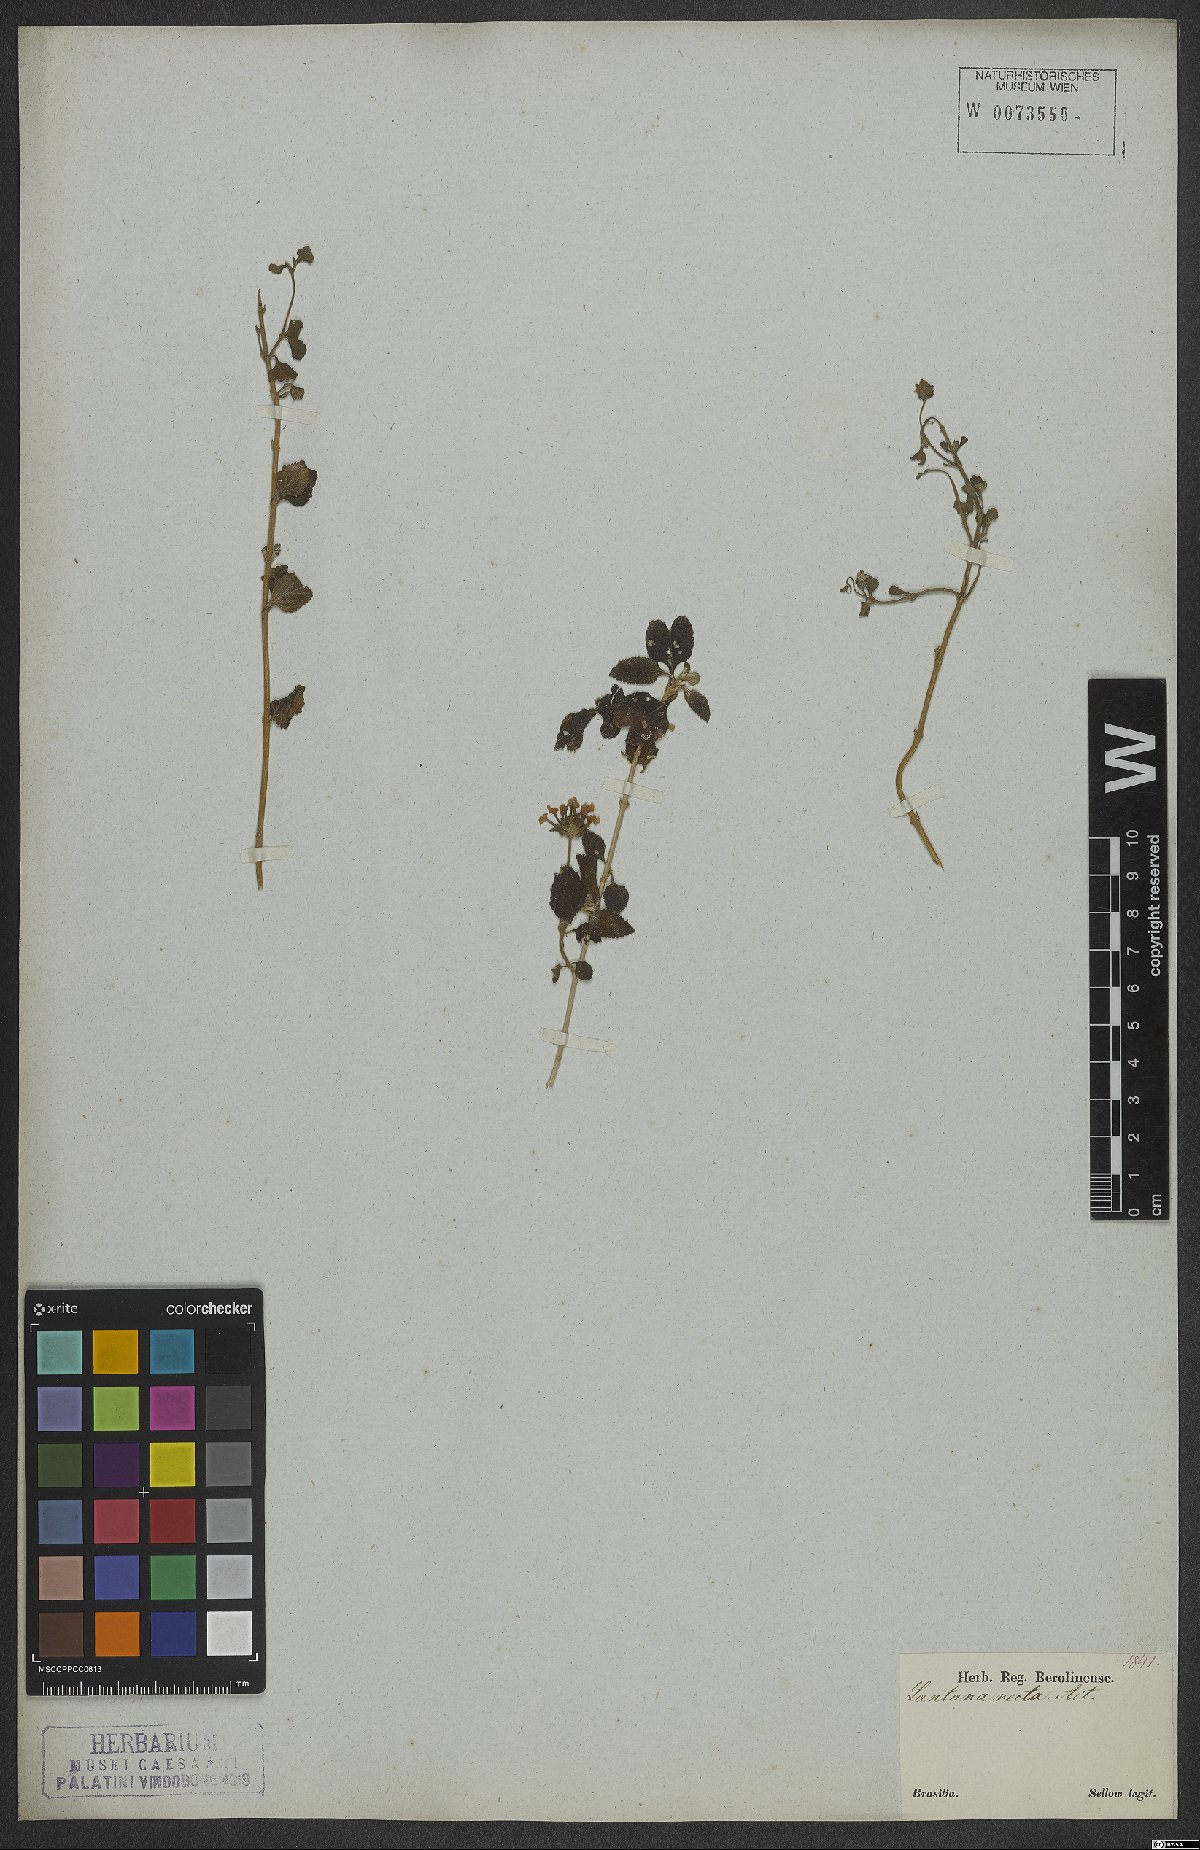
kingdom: Plantae
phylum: Tracheophyta
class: Magnoliopsida
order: Lamiales
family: Verbenaceae
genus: Lantana
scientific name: Lantana fucata
